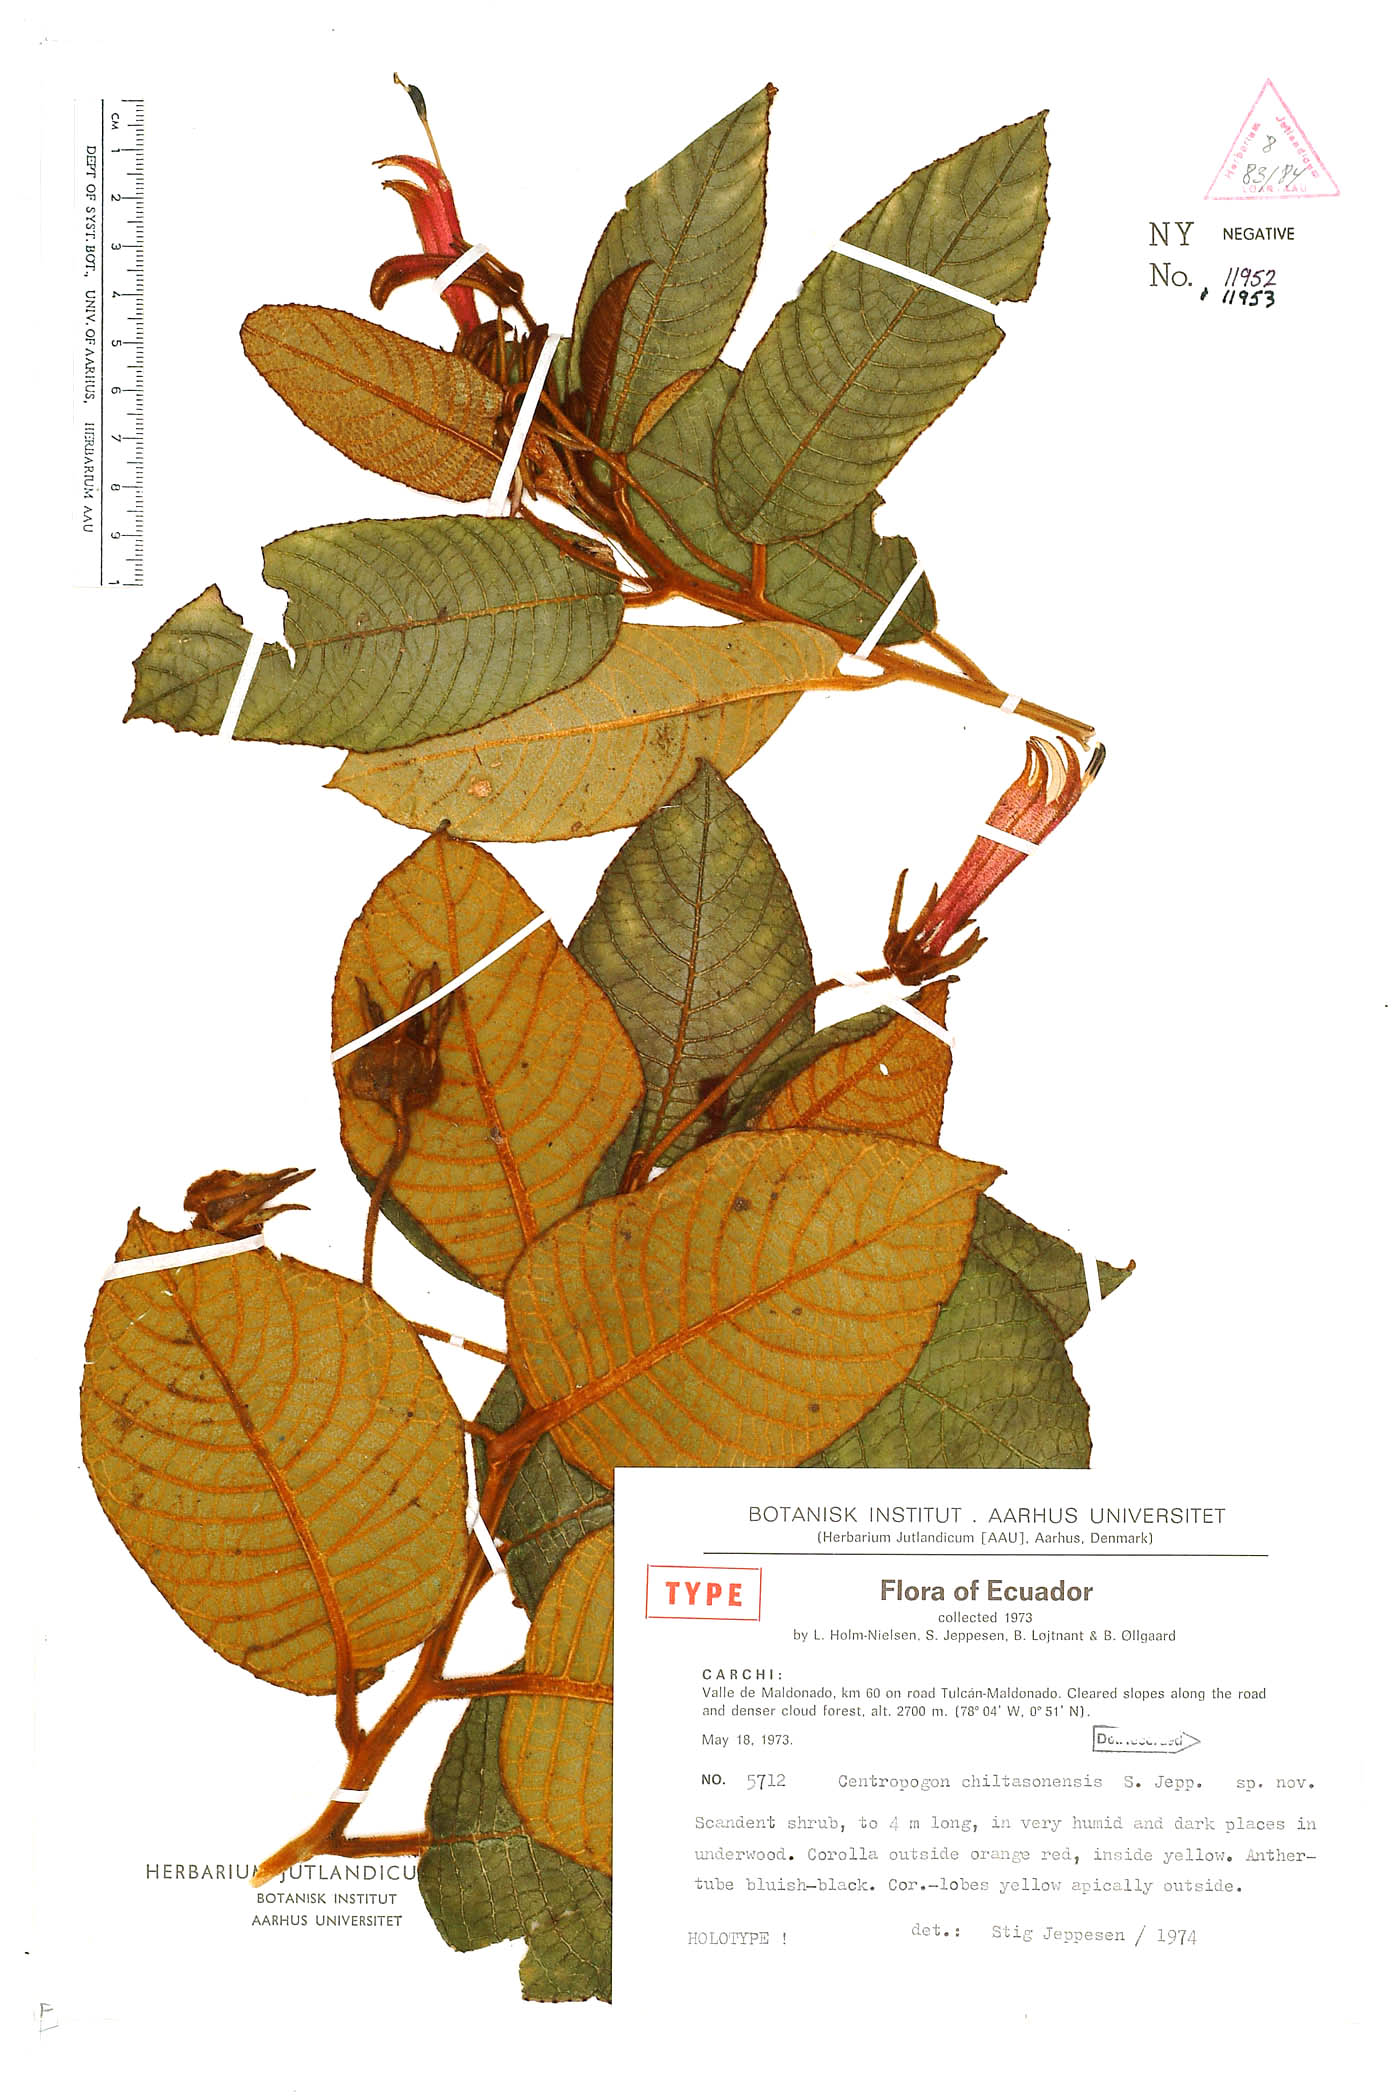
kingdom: Plantae
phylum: Tracheophyta
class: Magnoliopsida
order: Asterales
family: Campanulaceae
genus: Centropogon
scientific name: Centropogon chiltasonensis
